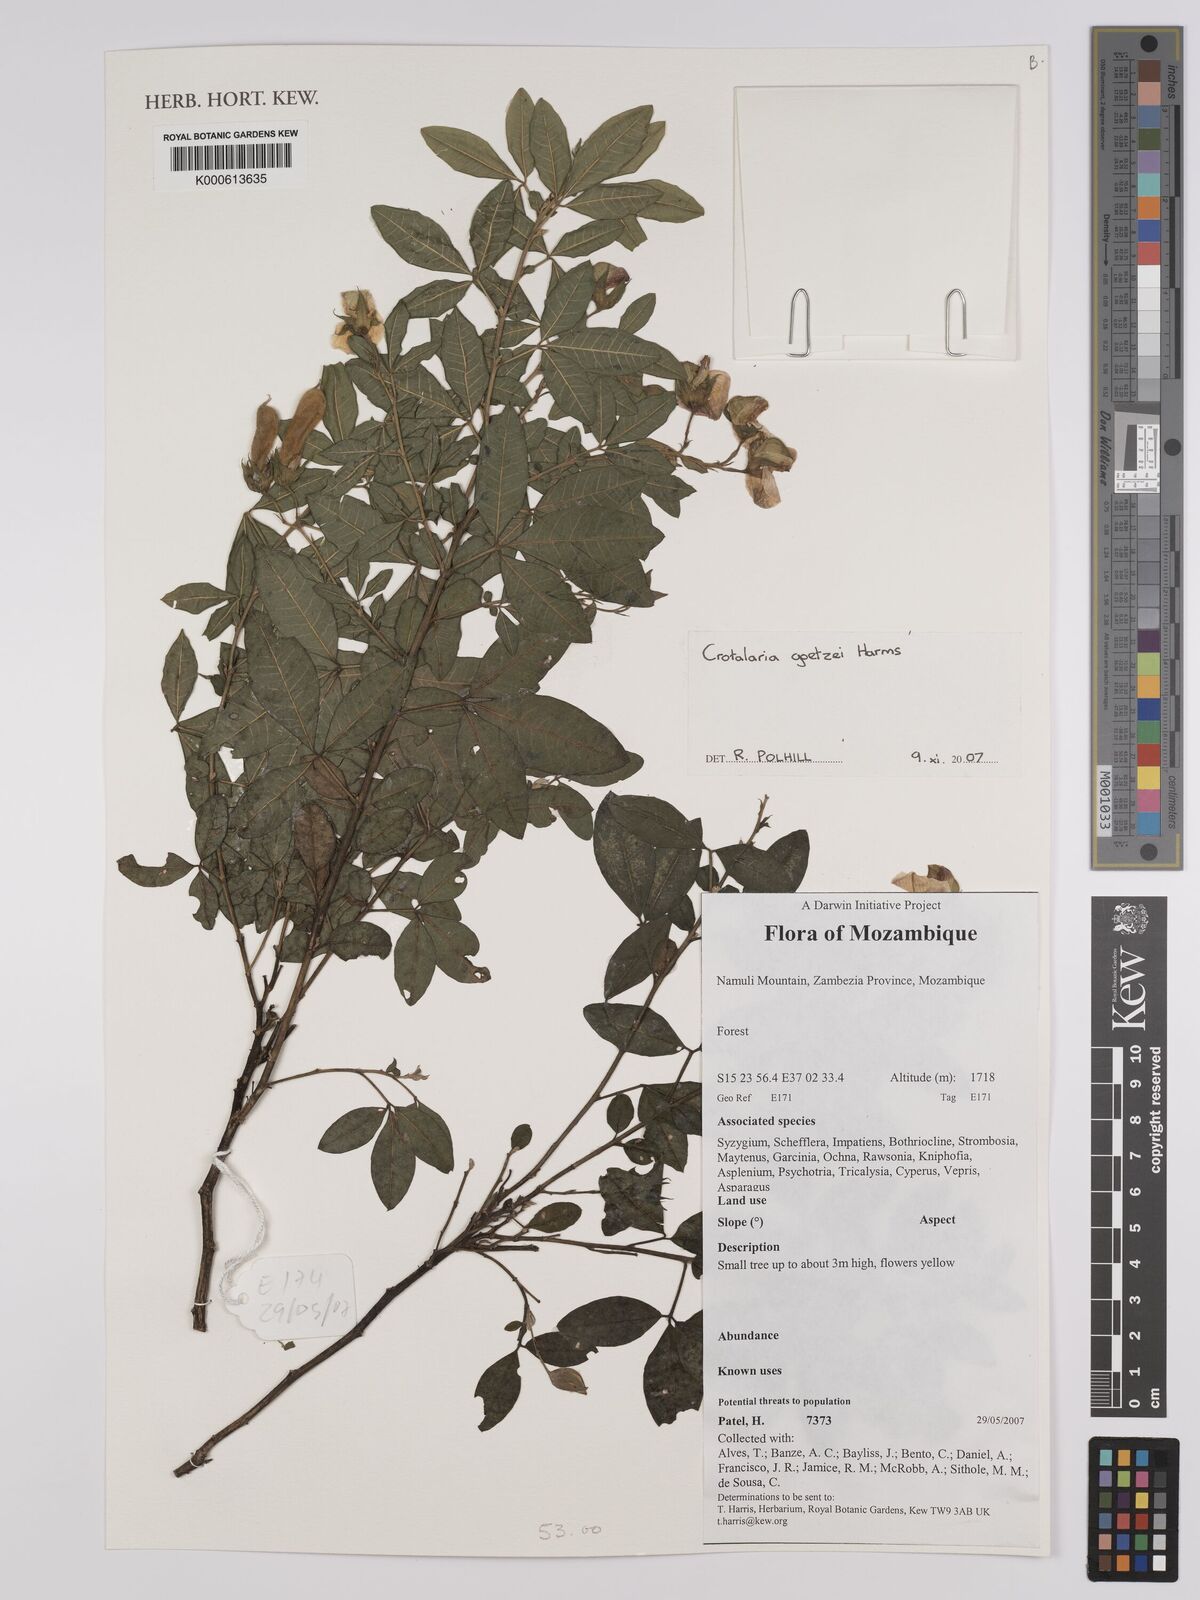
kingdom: Plantae
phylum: Tracheophyta
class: Magnoliopsida
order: Fabales
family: Fabaceae
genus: Crotalaria
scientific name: Crotalaria goetzei
